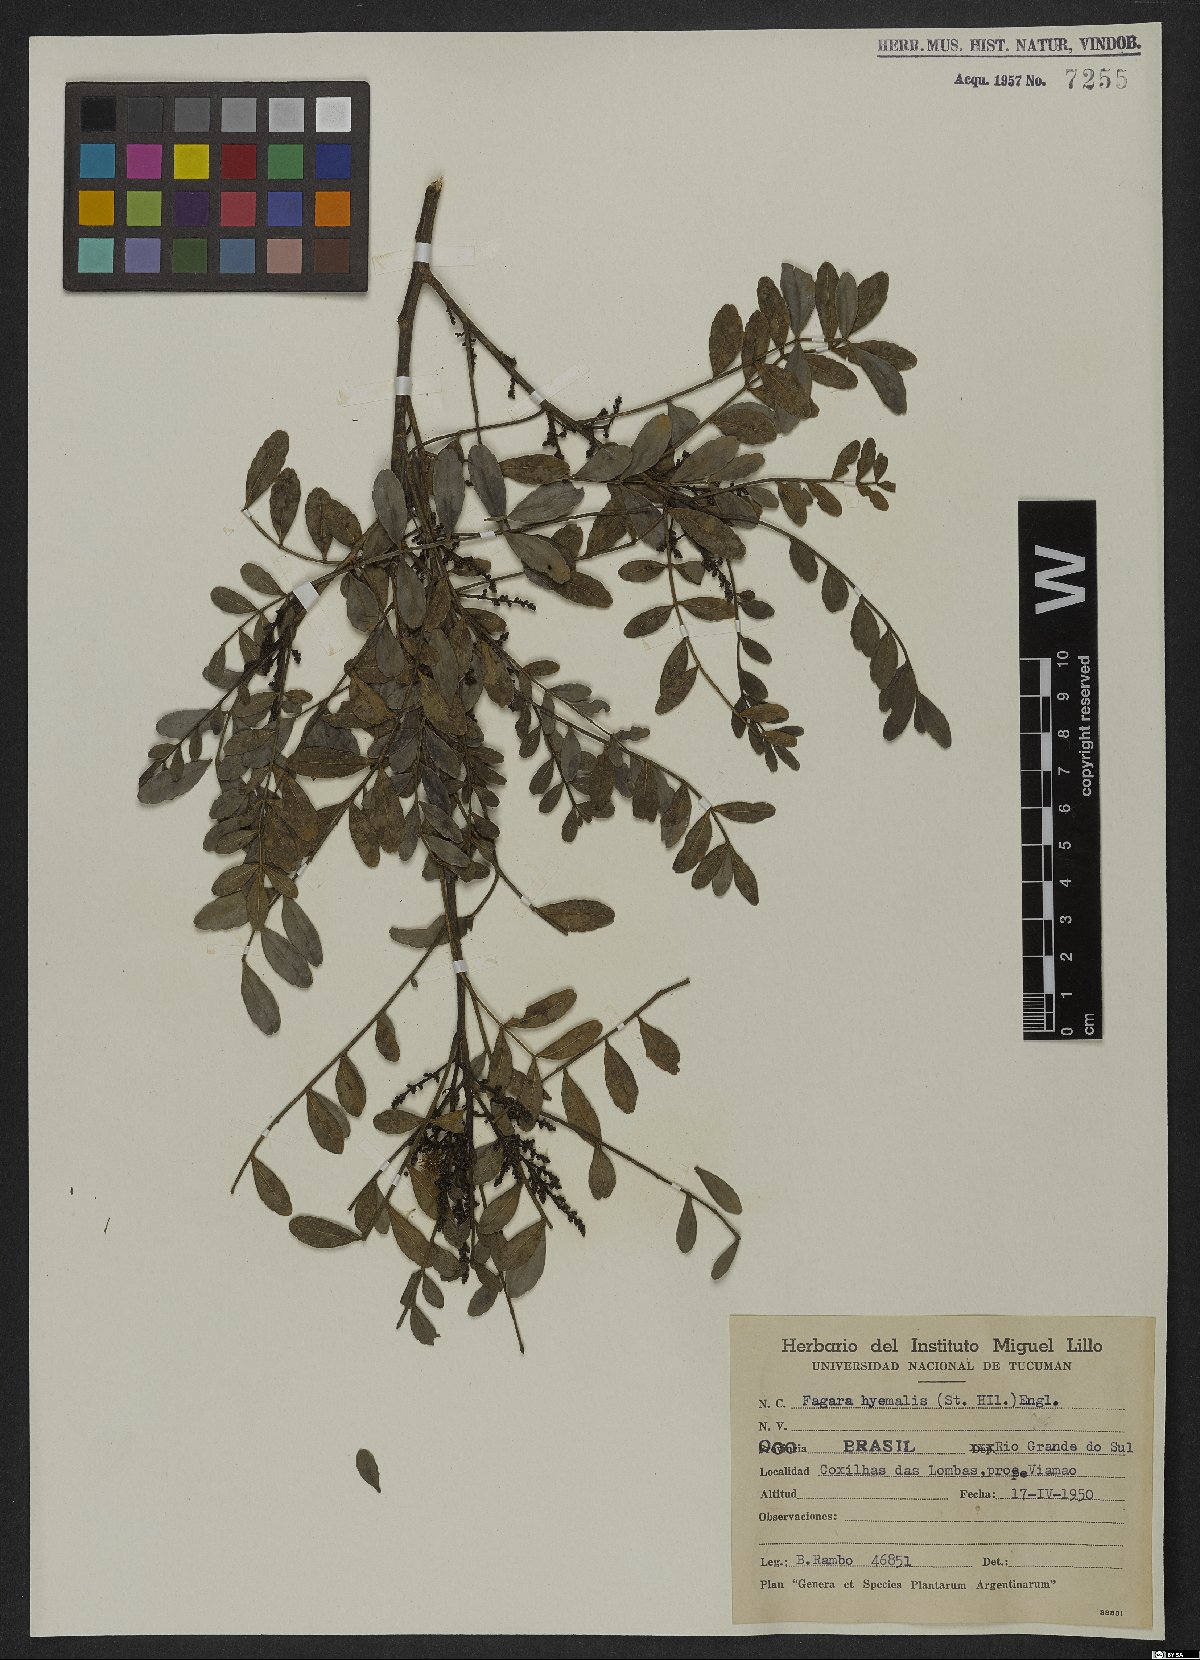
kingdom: Plantae
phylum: Tracheophyta
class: Magnoliopsida
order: Sapindales
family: Rutaceae
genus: Zanthoxylum
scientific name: Zanthoxylum fagara
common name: Lime prickly-ash
